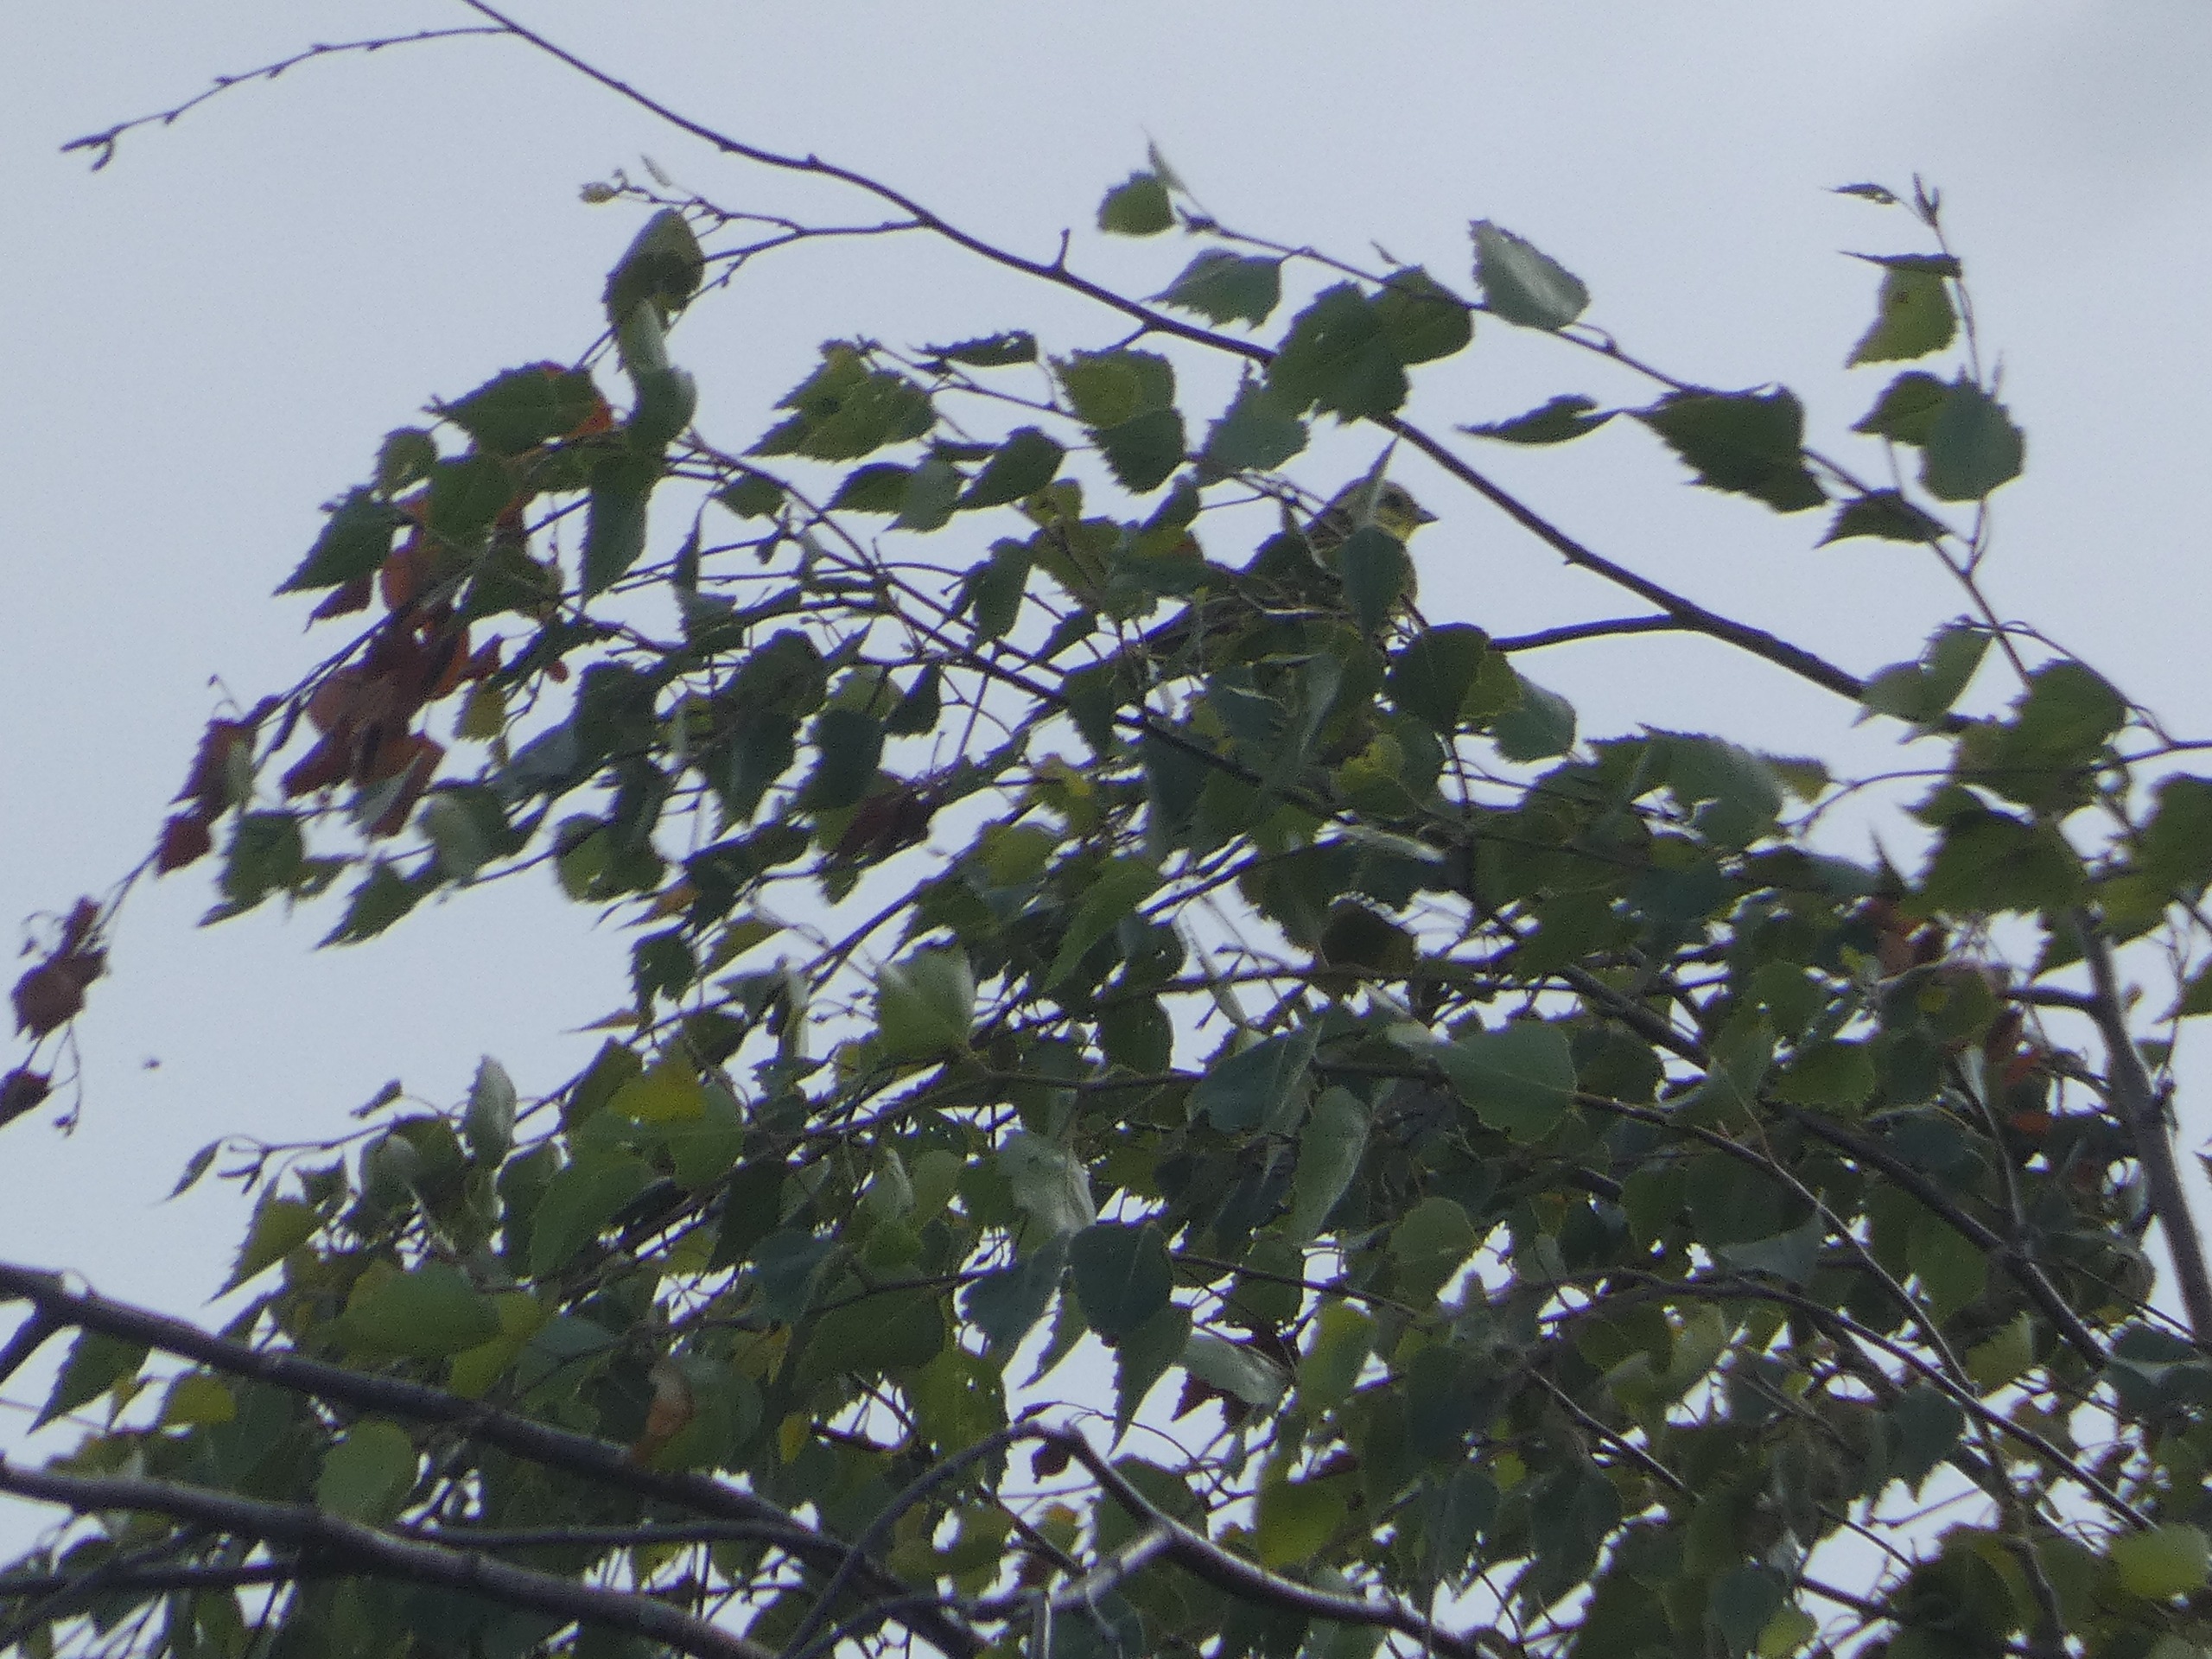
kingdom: Animalia
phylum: Chordata
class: Aves
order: Passeriformes
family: Emberizidae
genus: Emberiza
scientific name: Emberiza citrinella
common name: Gulspurv
